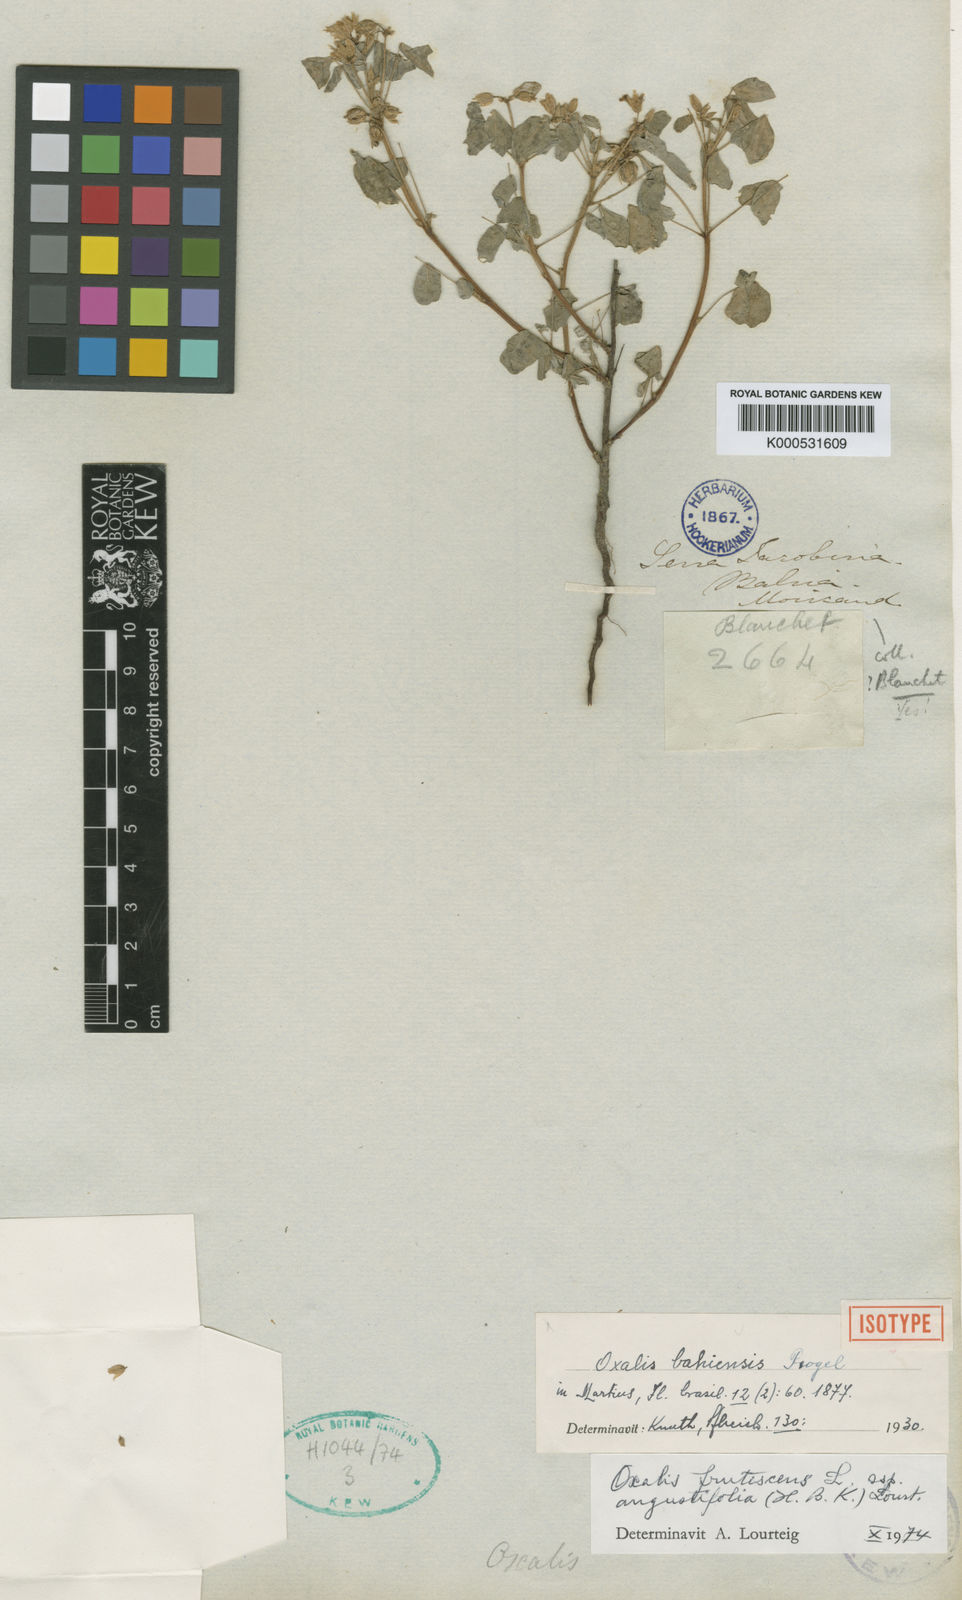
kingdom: Plantae
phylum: Tracheophyta
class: Magnoliopsida
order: Oxalidales
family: Oxalidaceae
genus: Oxalis
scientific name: Oxalis frutescens
